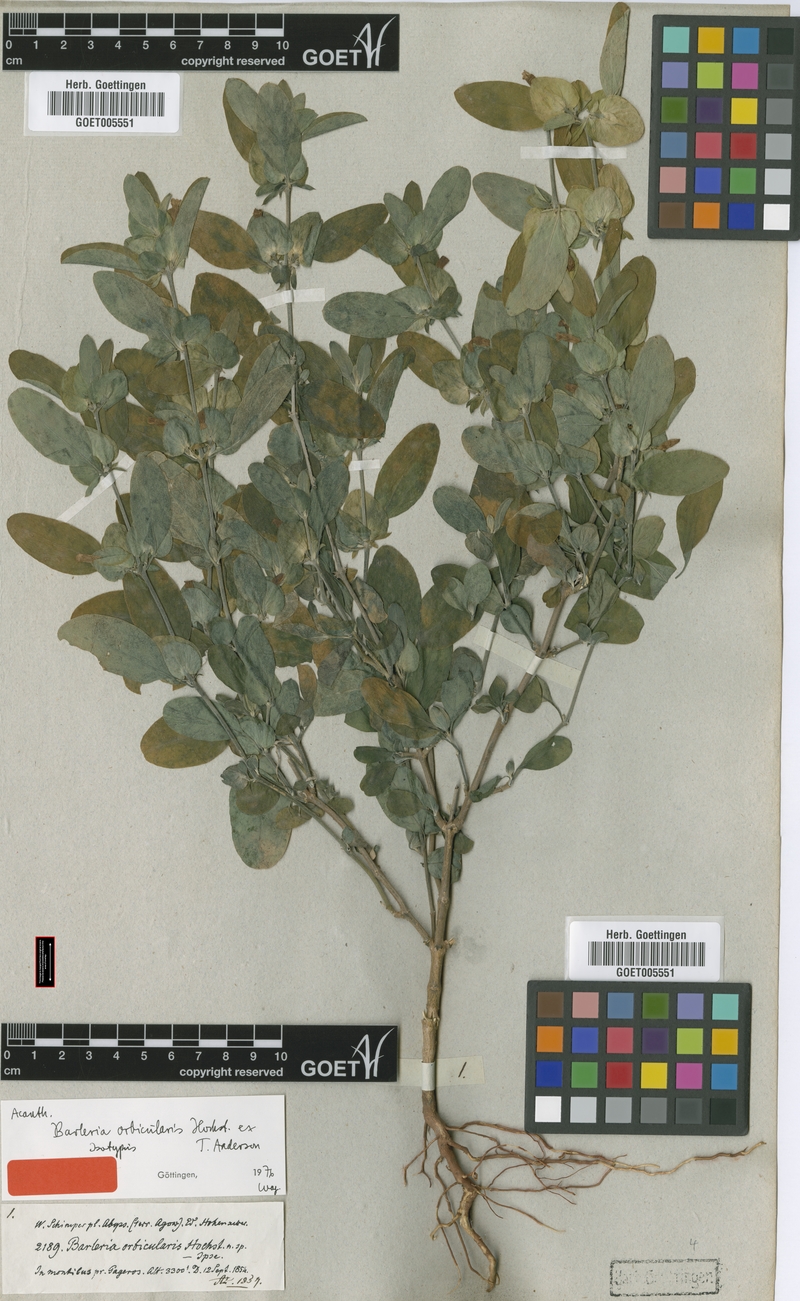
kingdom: Plantae
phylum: Tracheophyta
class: Magnoliopsida
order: Lamiales
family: Acanthaceae
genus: Barleria
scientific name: Barleria orbicularis
